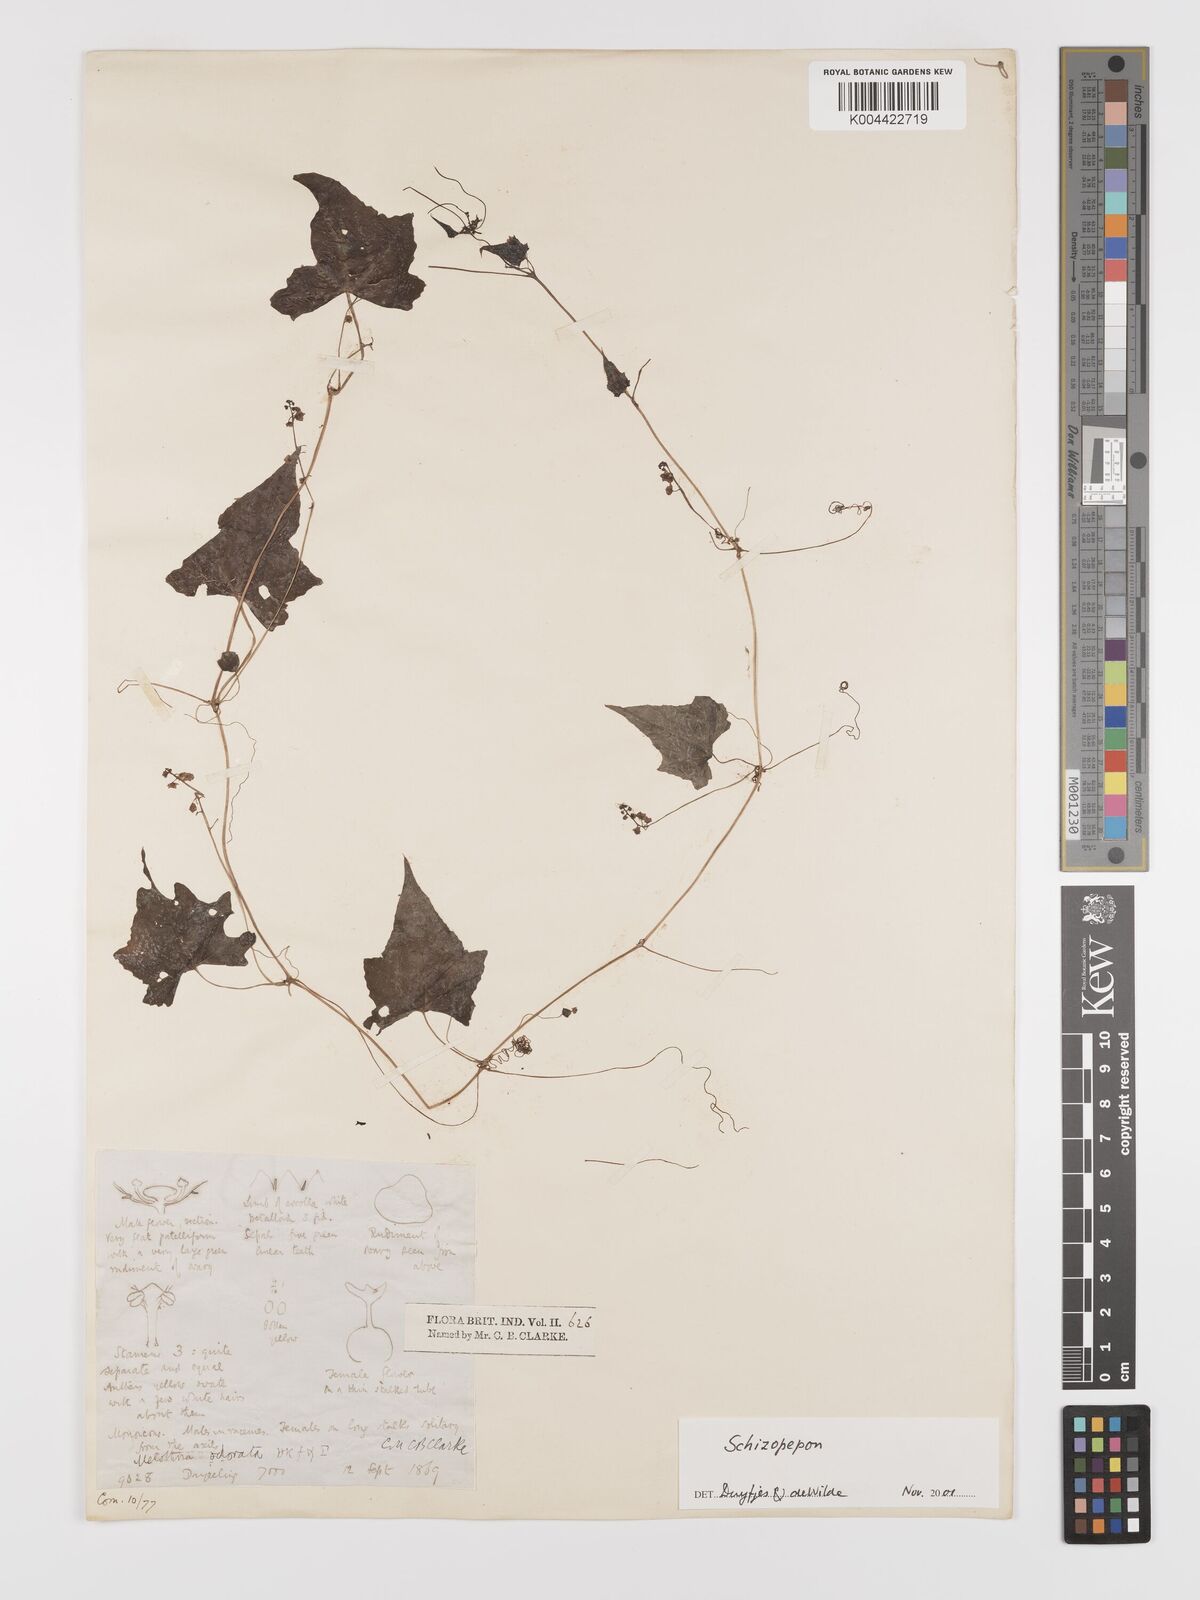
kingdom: Plantae
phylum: Tracheophyta
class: Magnoliopsida
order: Cucurbitales
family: Cucurbitaceae
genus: Schizopepon
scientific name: Schizopepon bryoniifolius
